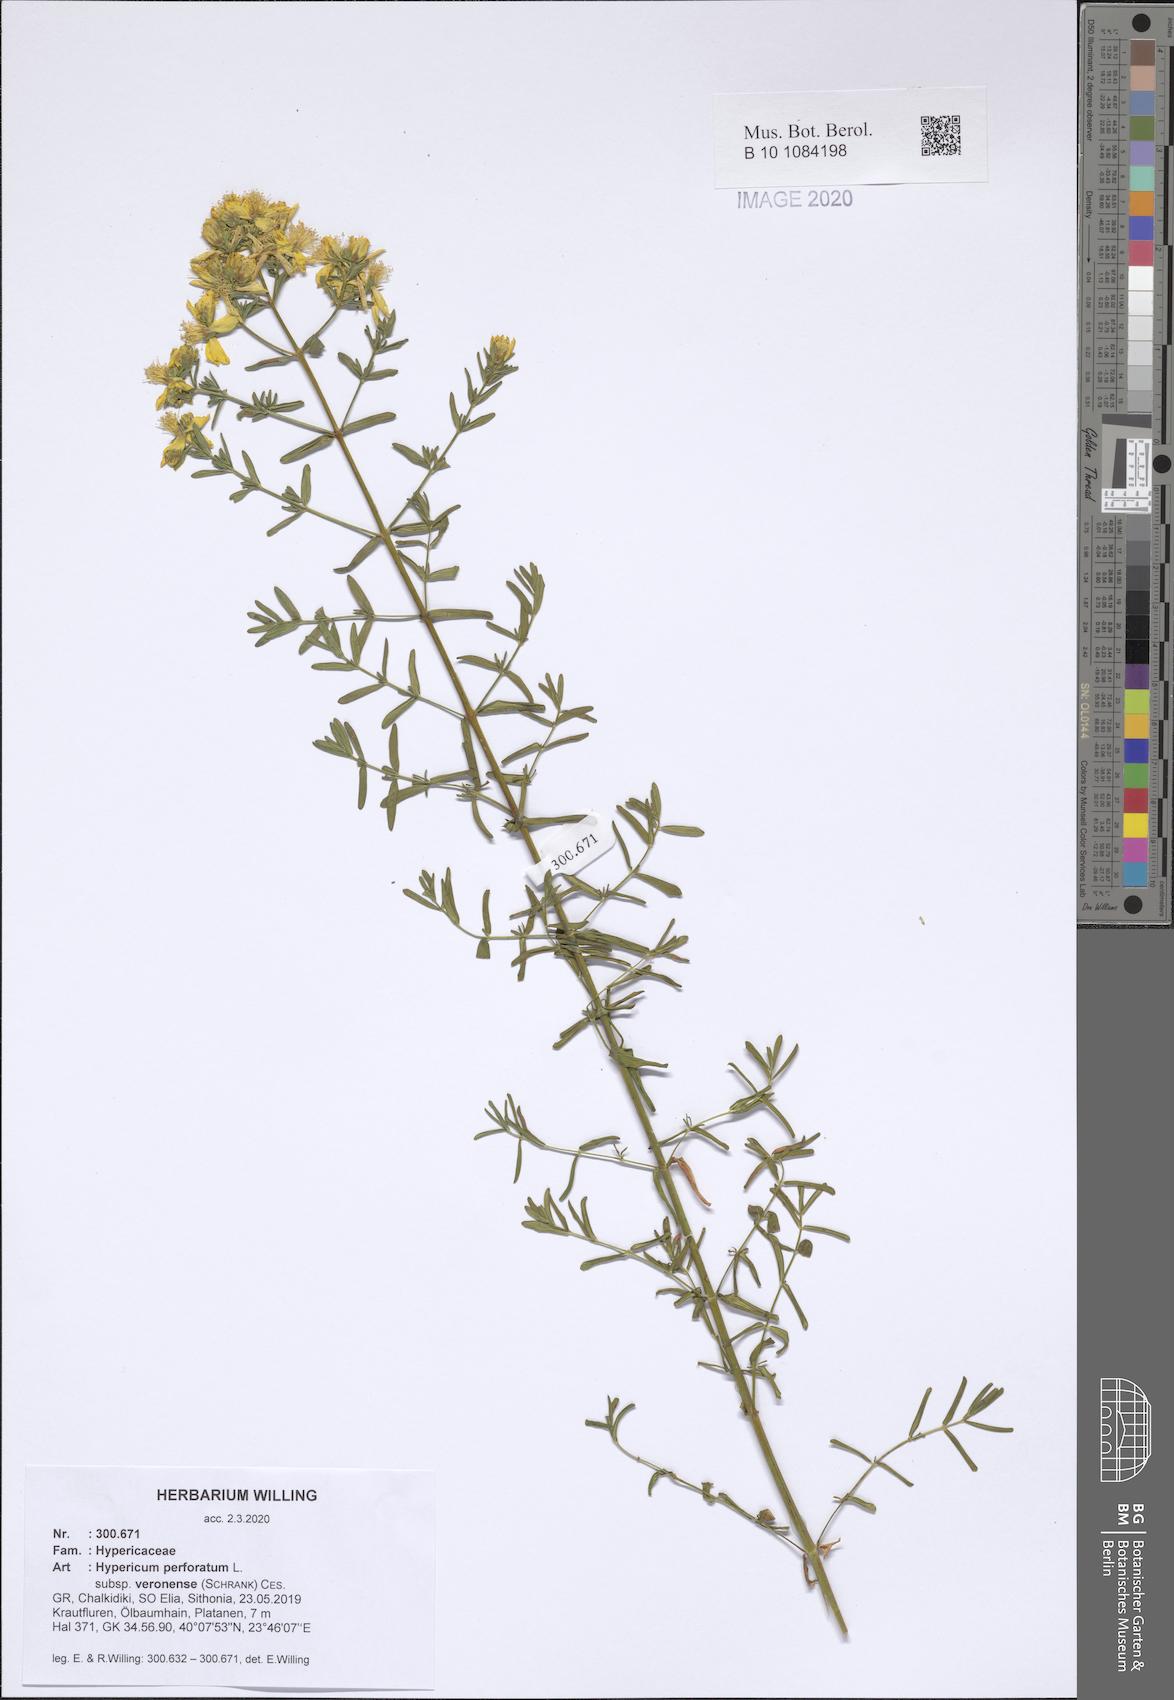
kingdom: Plantae
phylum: Tracheophyta
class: Magnoliopsida
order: Malpighiales
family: Hypericaceae
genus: Hypericum
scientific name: Hypericum veronense
